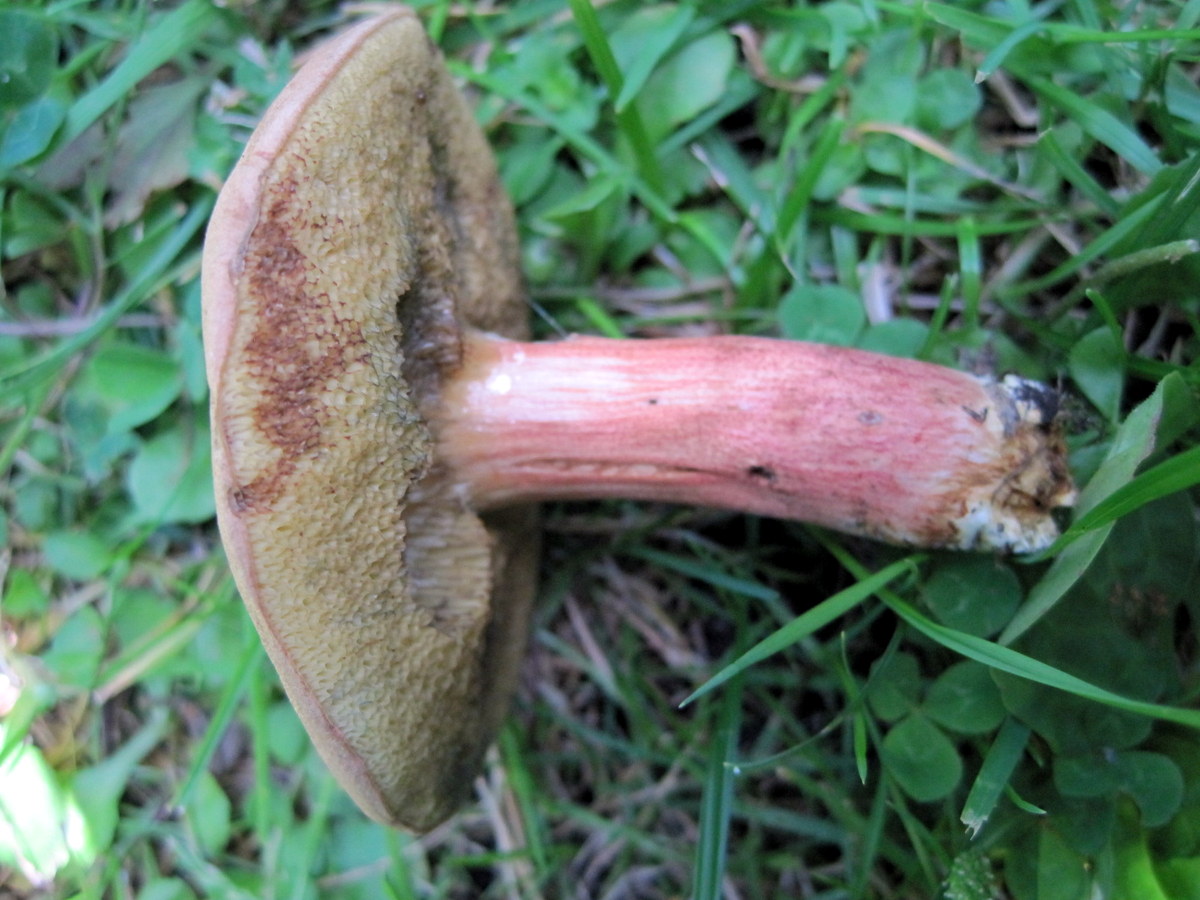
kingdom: Fungi
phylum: Basidiomycota
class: Agaricomycetes
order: Boletales
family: Boletaceae
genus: Hortiboletus
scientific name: Hortiboletus bubalinus
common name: aurora-rørhat
